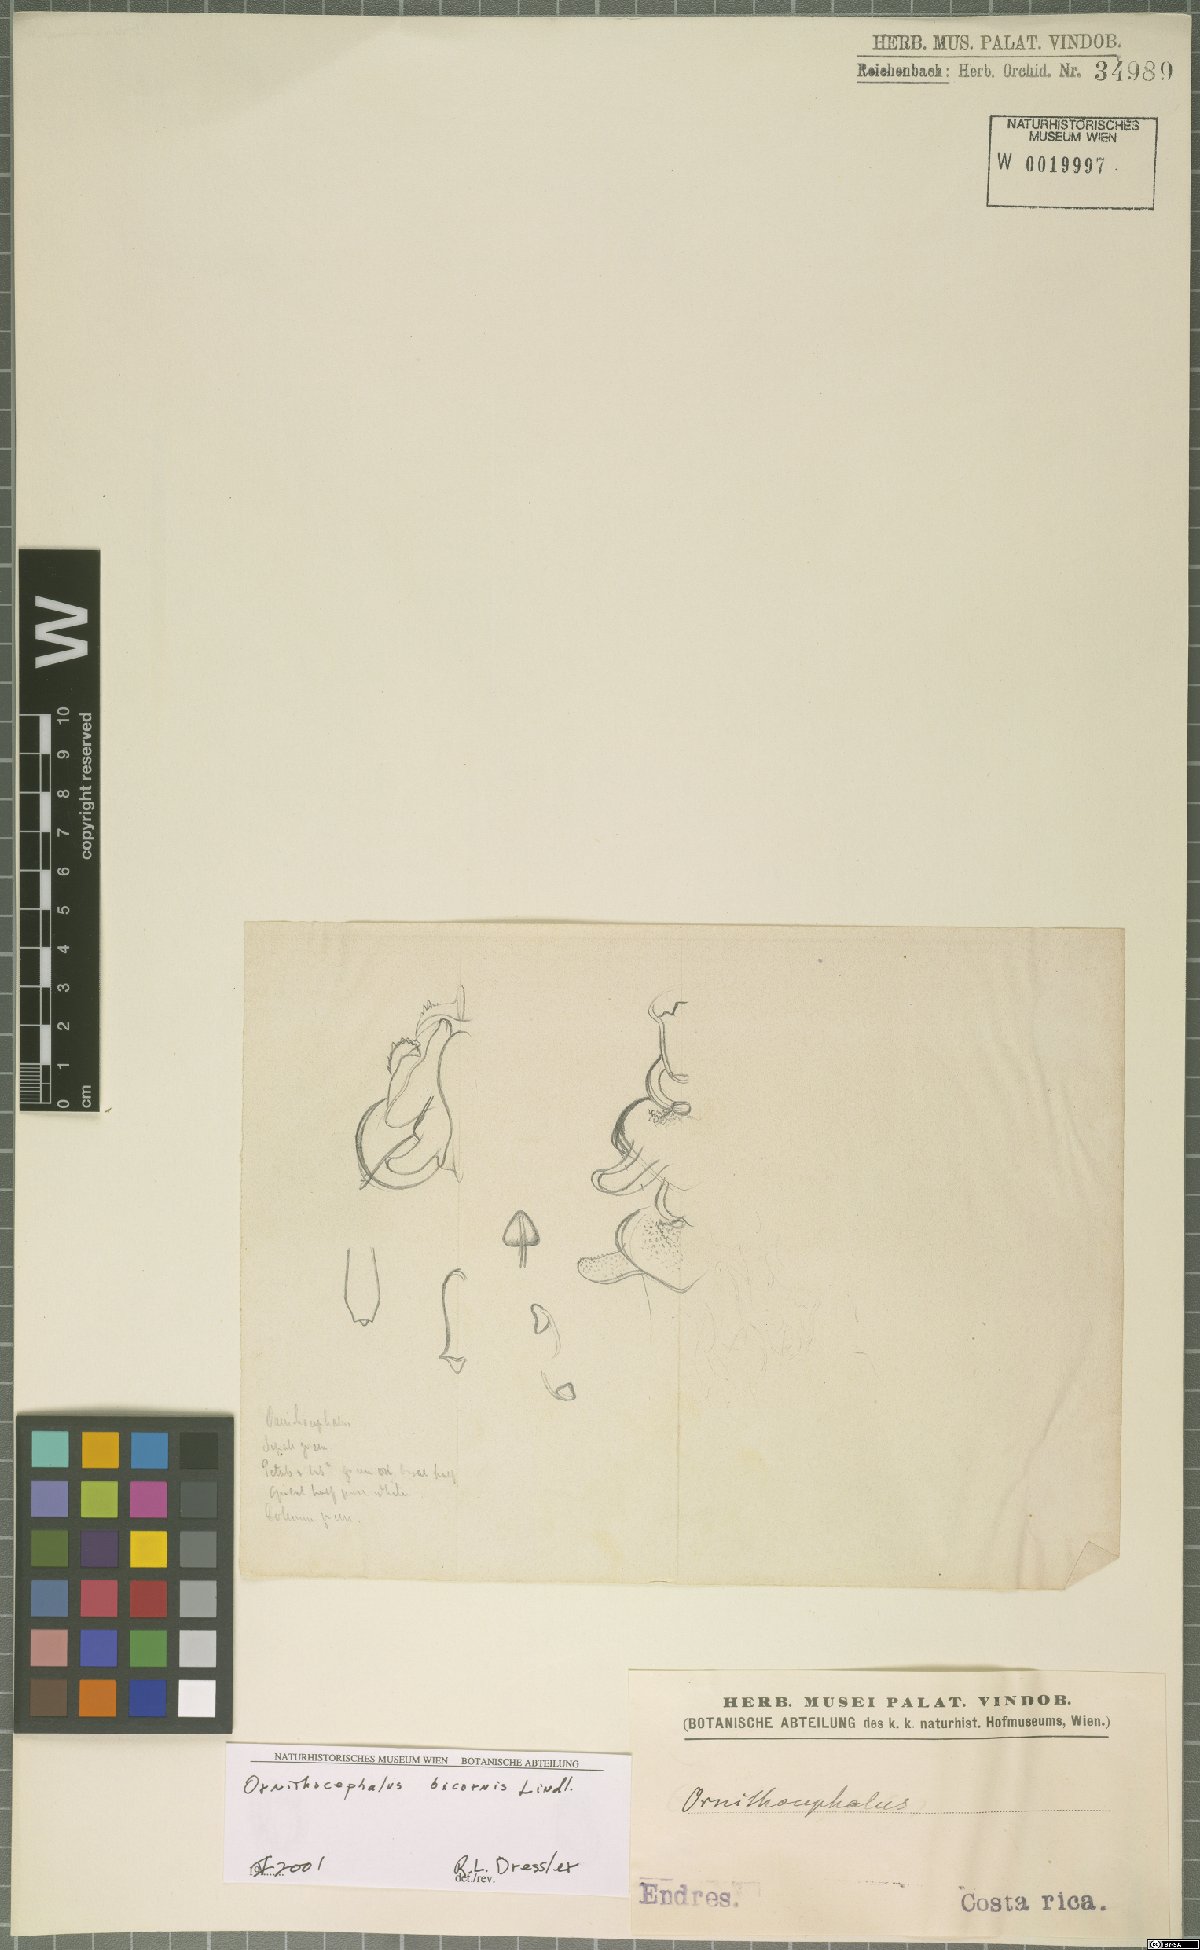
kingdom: Plantae
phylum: Tracheophyta
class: Liliopsida
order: Asparagales
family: Orchidaceae
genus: Ornithocephalus
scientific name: Ornithocephalus bicornis
